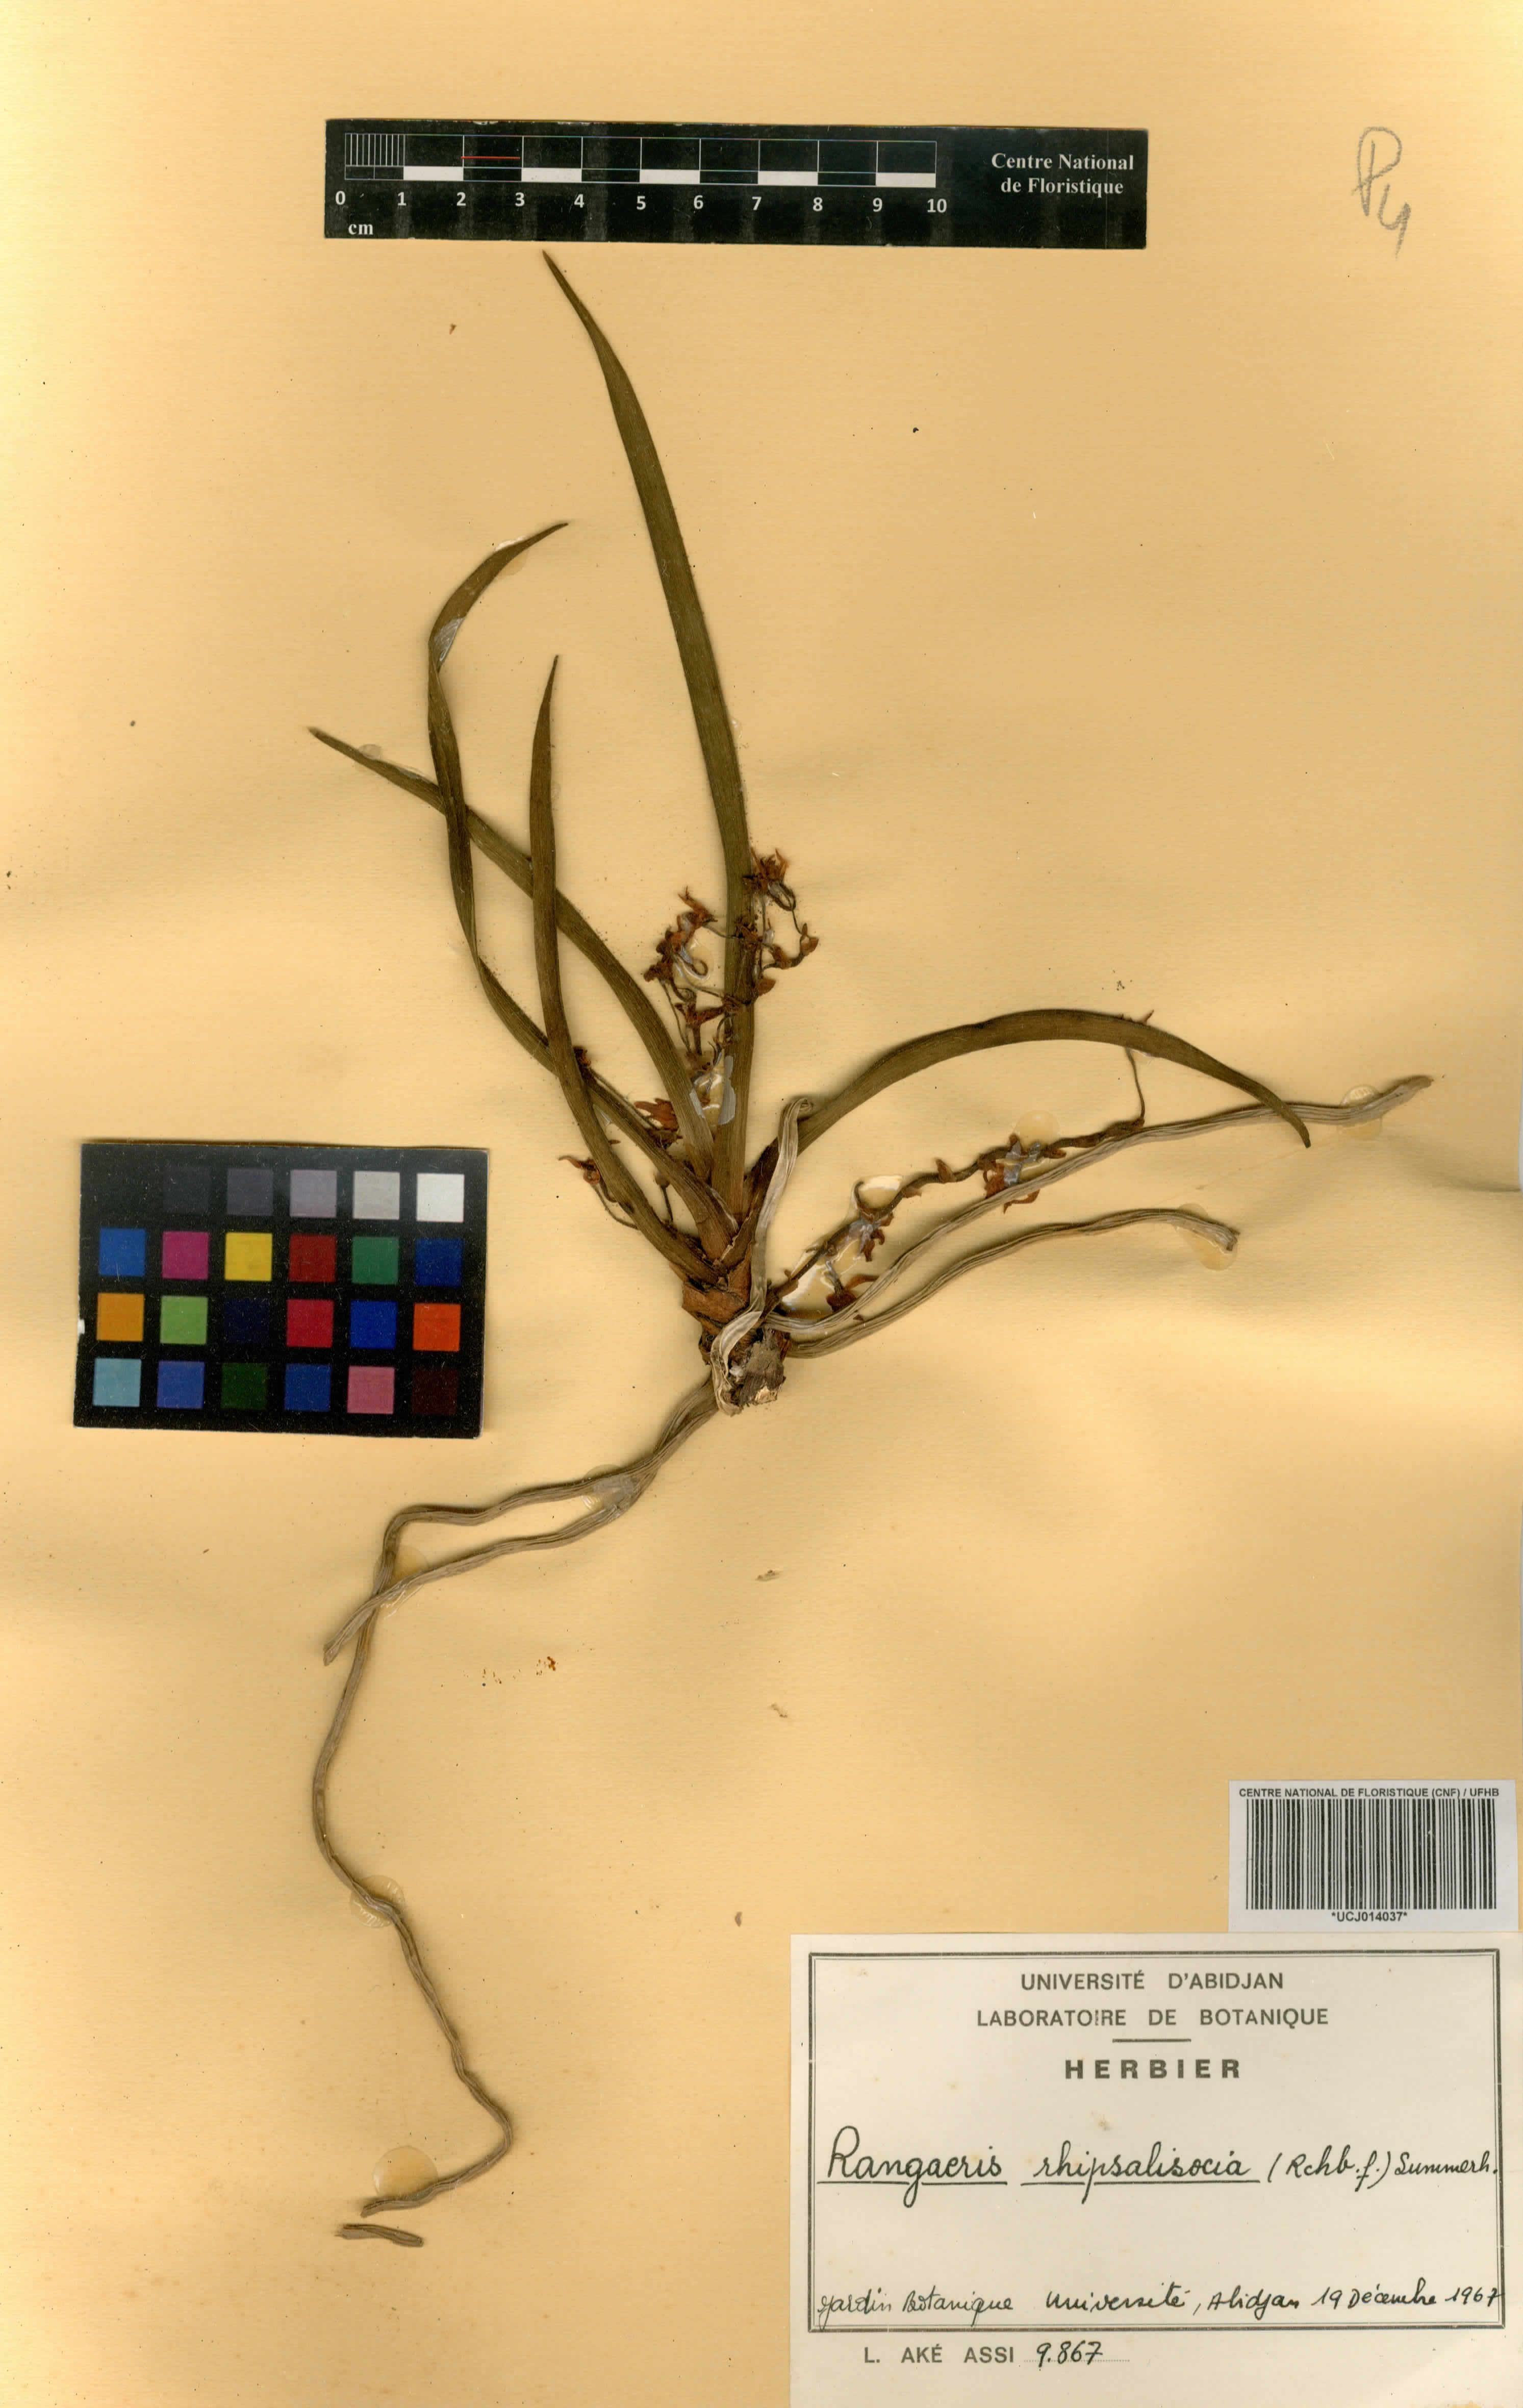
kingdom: Plantae
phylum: Tracheophyta
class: Liliopsida
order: Asparagales
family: Orchidaceae
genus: Podangis
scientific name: Podangis rhipsalisocia
